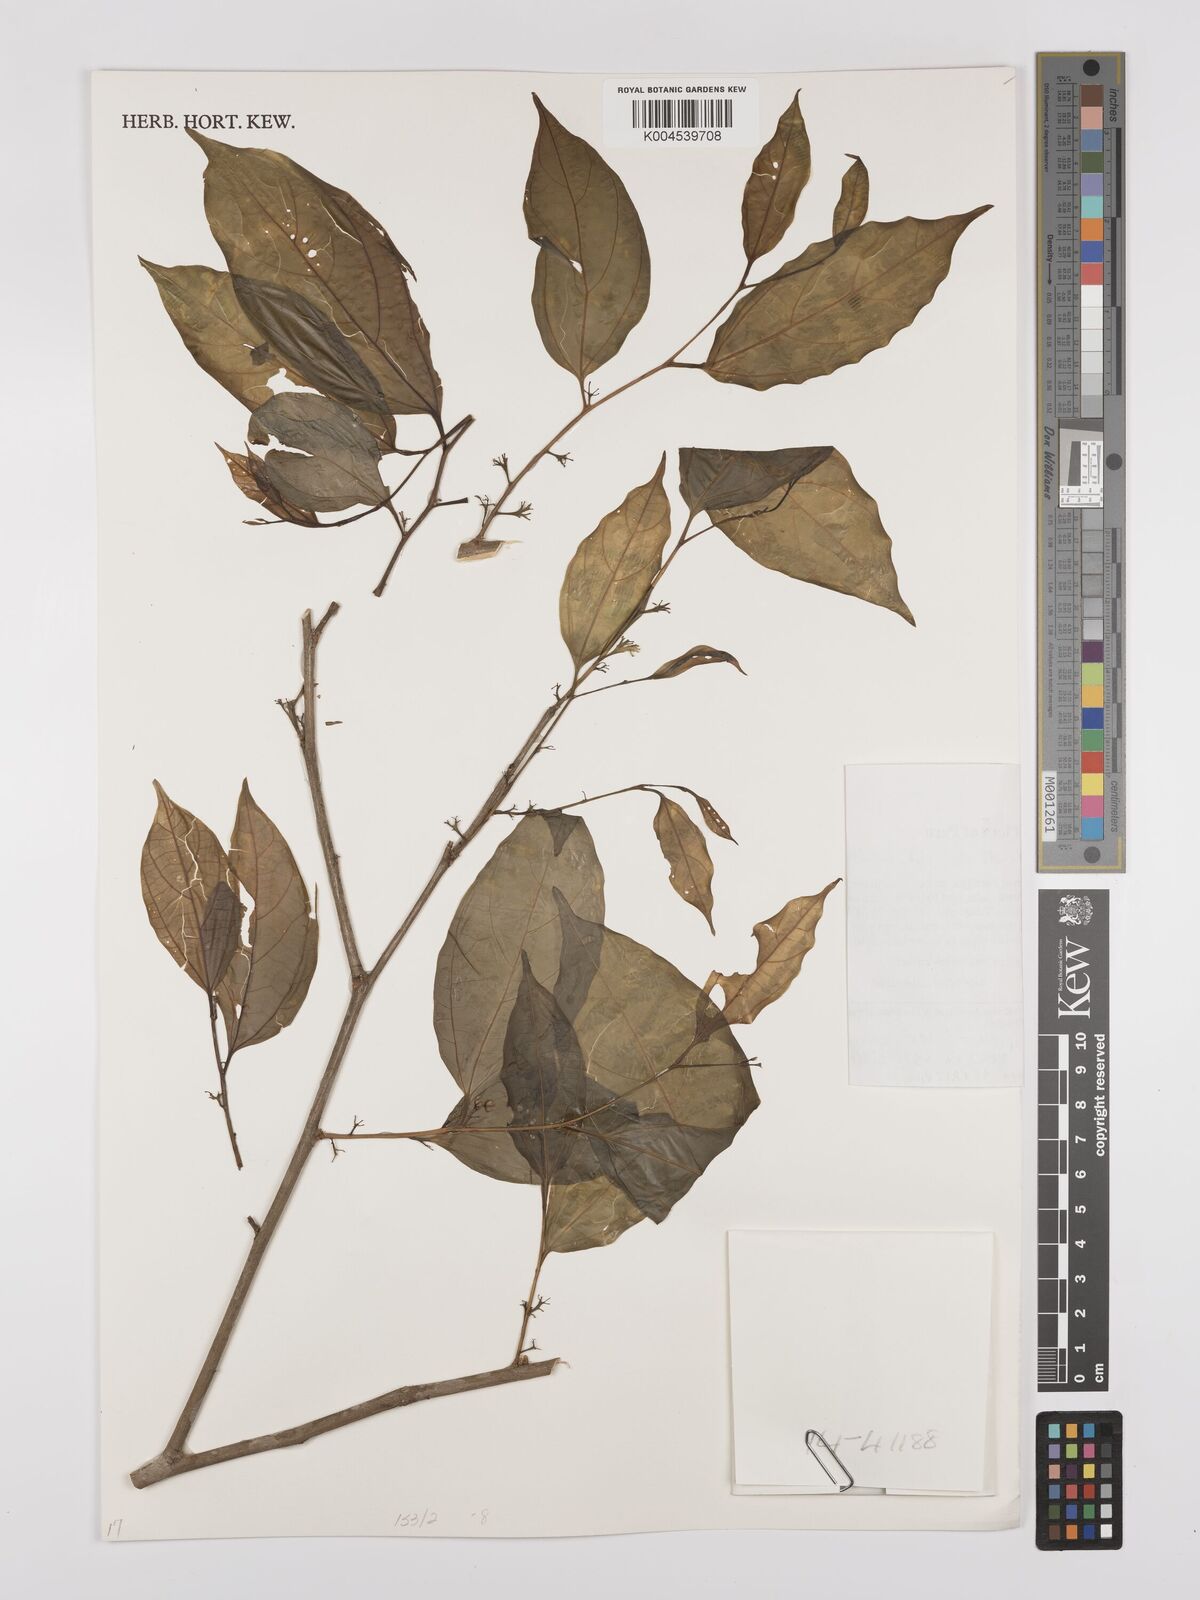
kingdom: Plantae
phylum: Tracheophyta
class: Magnoliopsida
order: Rosales
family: Cannabaceae
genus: Celtis
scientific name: Celtis schippii
